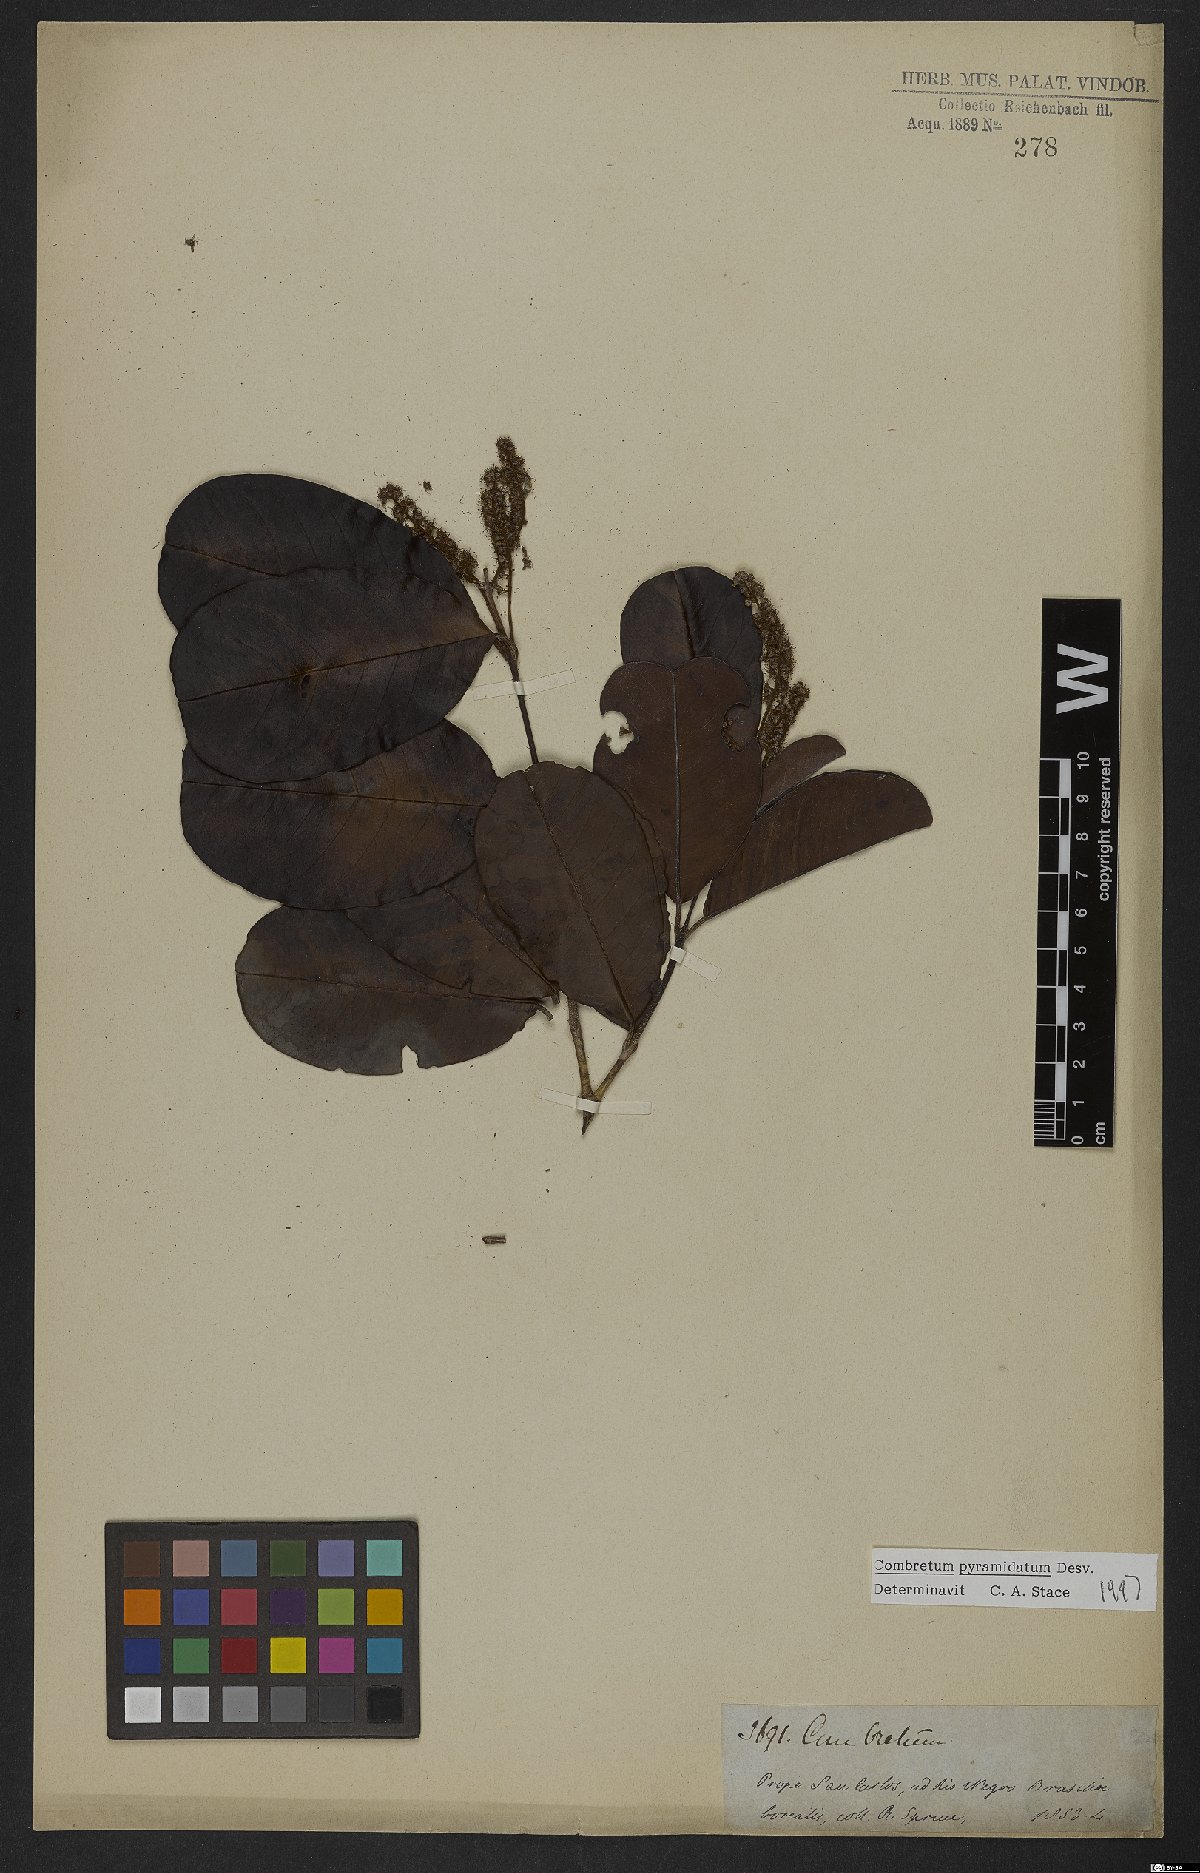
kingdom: Plantae
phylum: Tracheophyta
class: Magnoliopsida
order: Myrtales
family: Combretaceae
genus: Combretum
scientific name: Combretum pyramidatum
